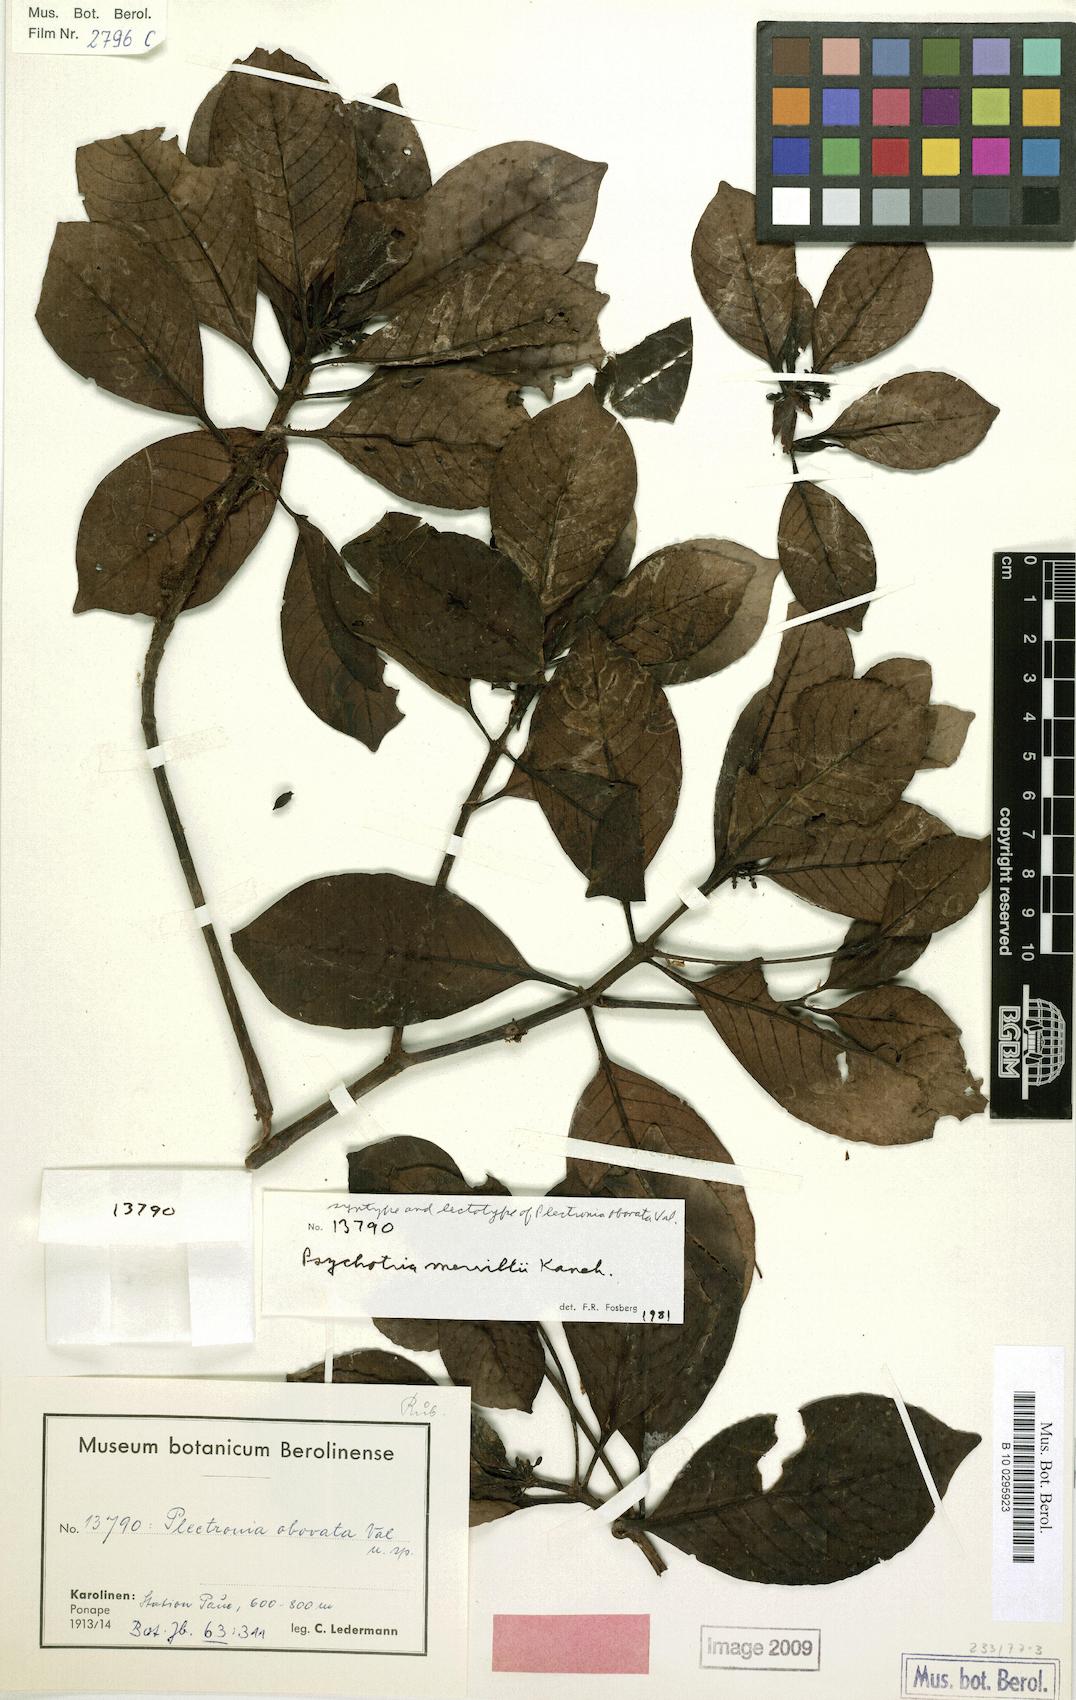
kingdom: Plantae
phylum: Tracheophyta
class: Magnoliopsida
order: Gentianales
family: Rubiaceae
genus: Psychotria
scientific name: Psychotria merrillii
